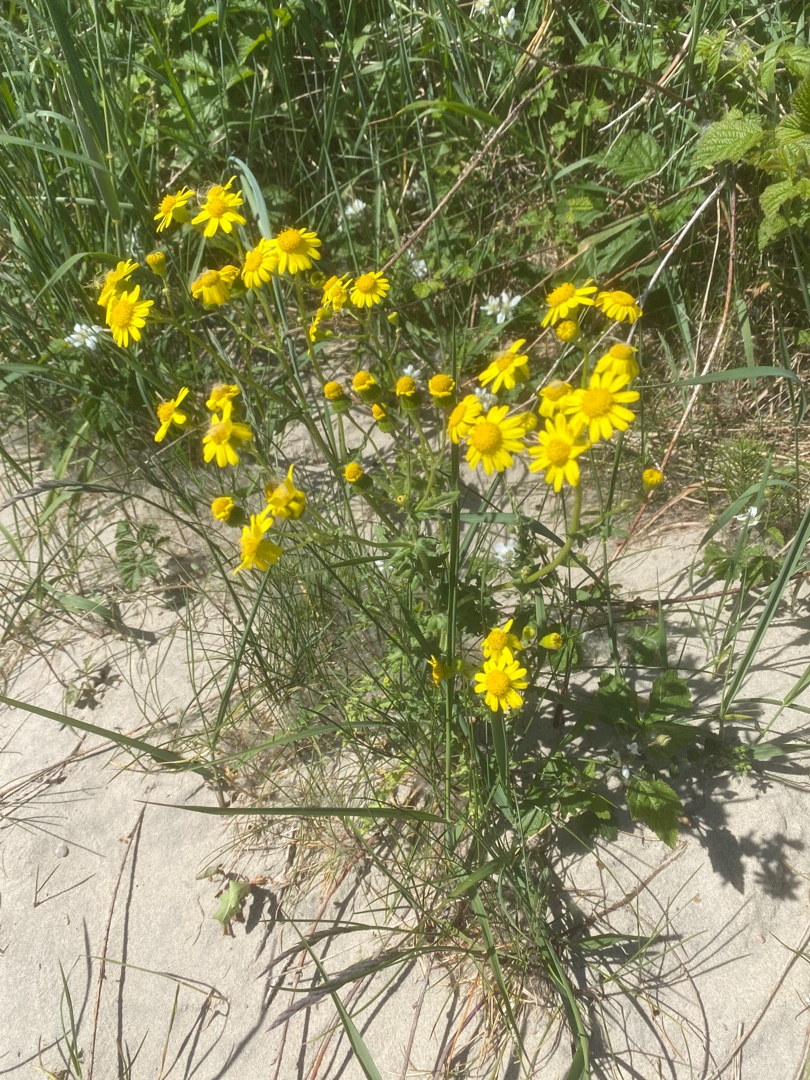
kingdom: Plantae
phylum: Tracheophyta
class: Magnoliopsida
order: Asterales
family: Asteraceae
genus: Senecio
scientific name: Senecio leucanthemifolius
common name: Vår-brandbæger
